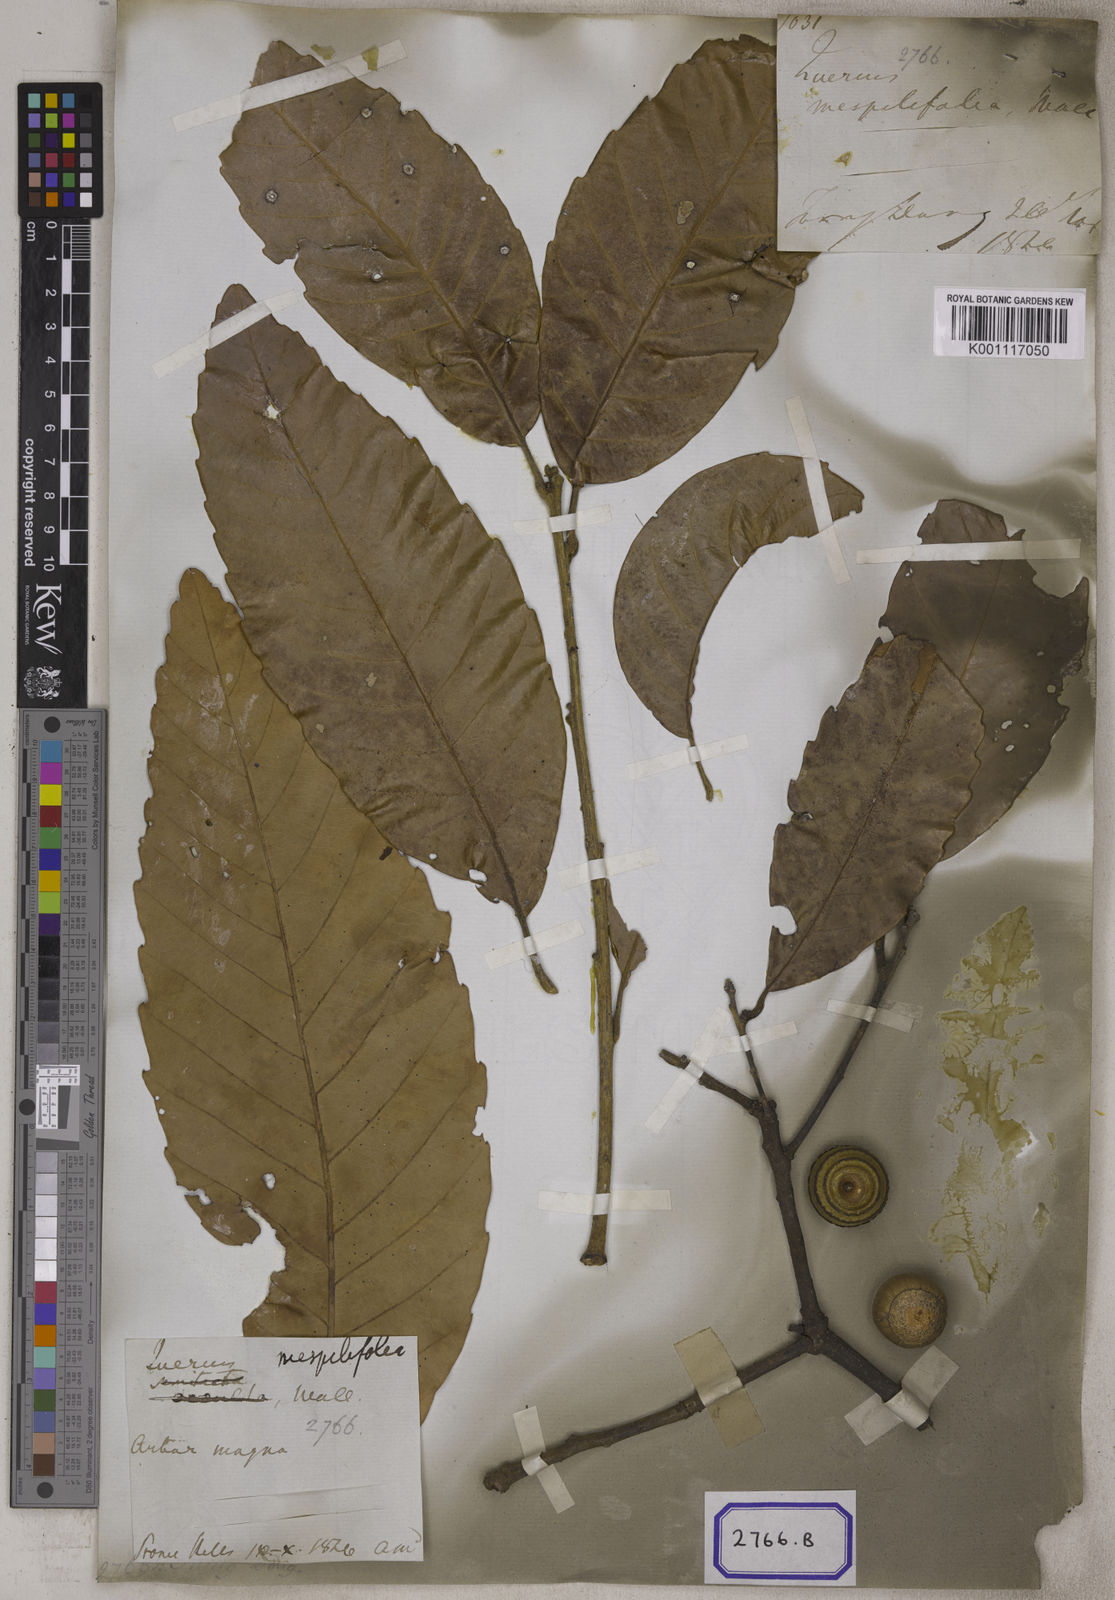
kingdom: Plantae
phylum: Tracheophyta
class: Magnoliopsida
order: Fagales
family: Fagaceae
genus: Quercus
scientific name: Quercus
